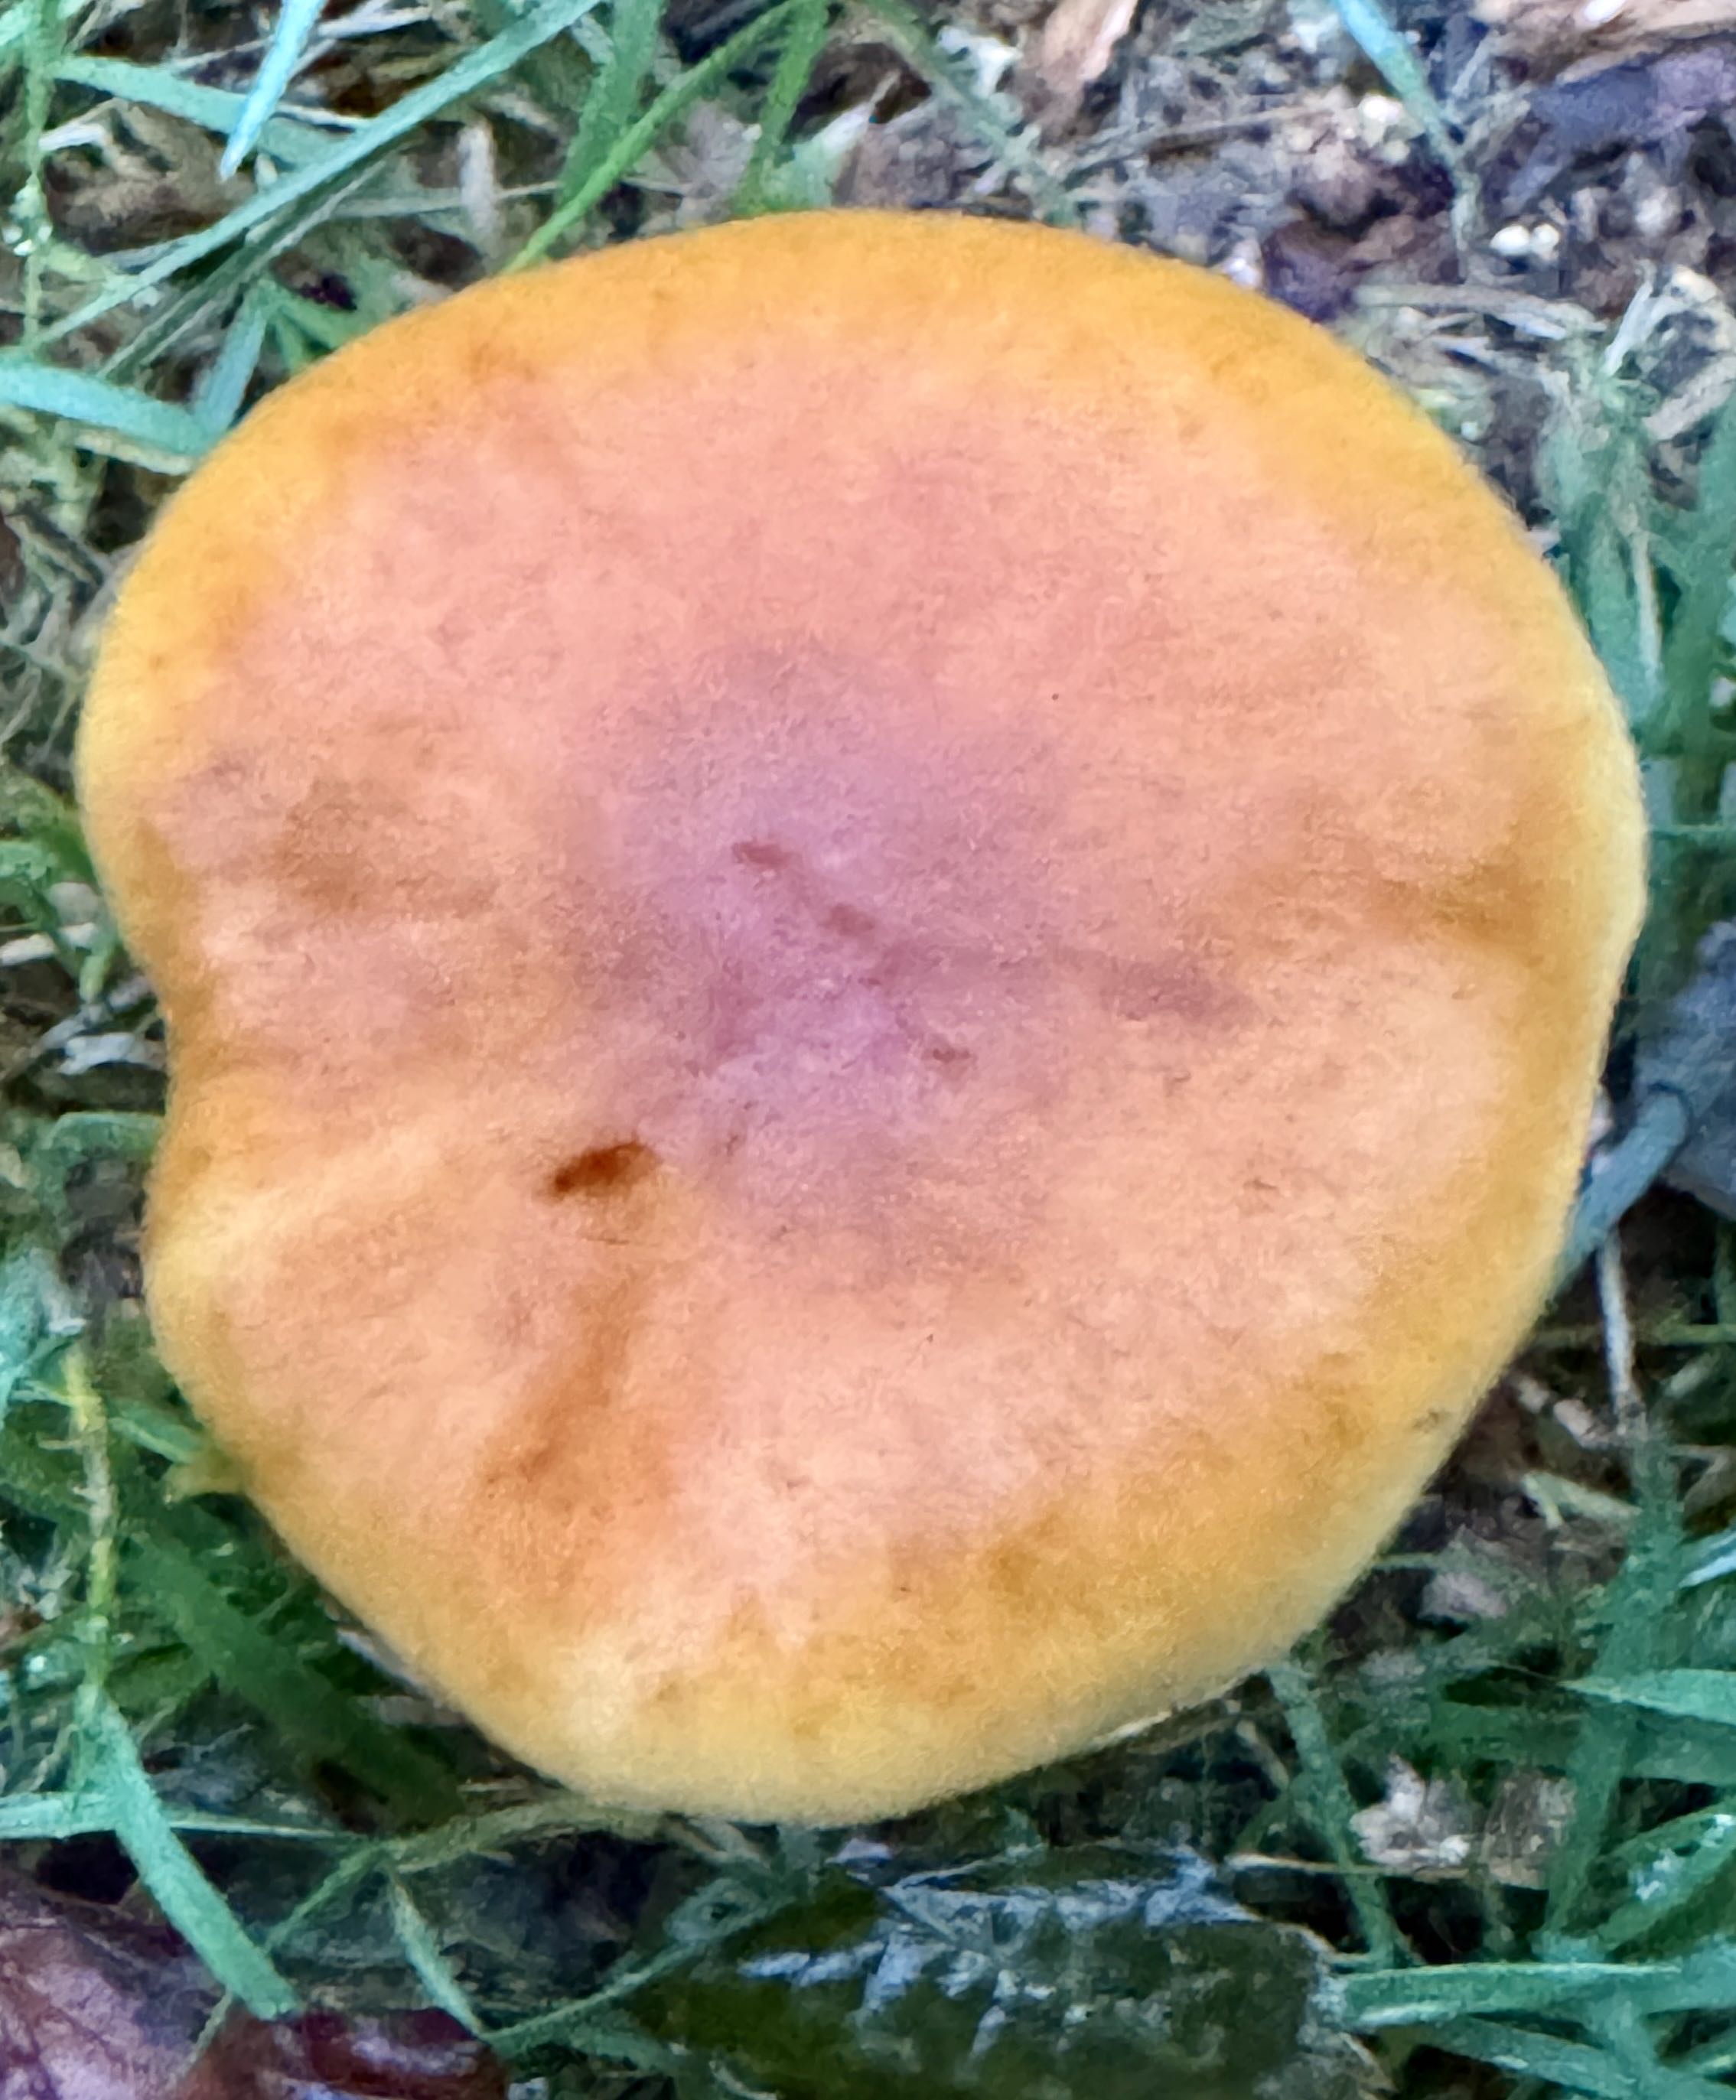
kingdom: Fungi
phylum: Basidiomycota
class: Agaricomycetes
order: Agaricales
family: Hymenogastraceae
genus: Gymnopilus
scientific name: Gymnopilus penetrans
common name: plettet flammehat
